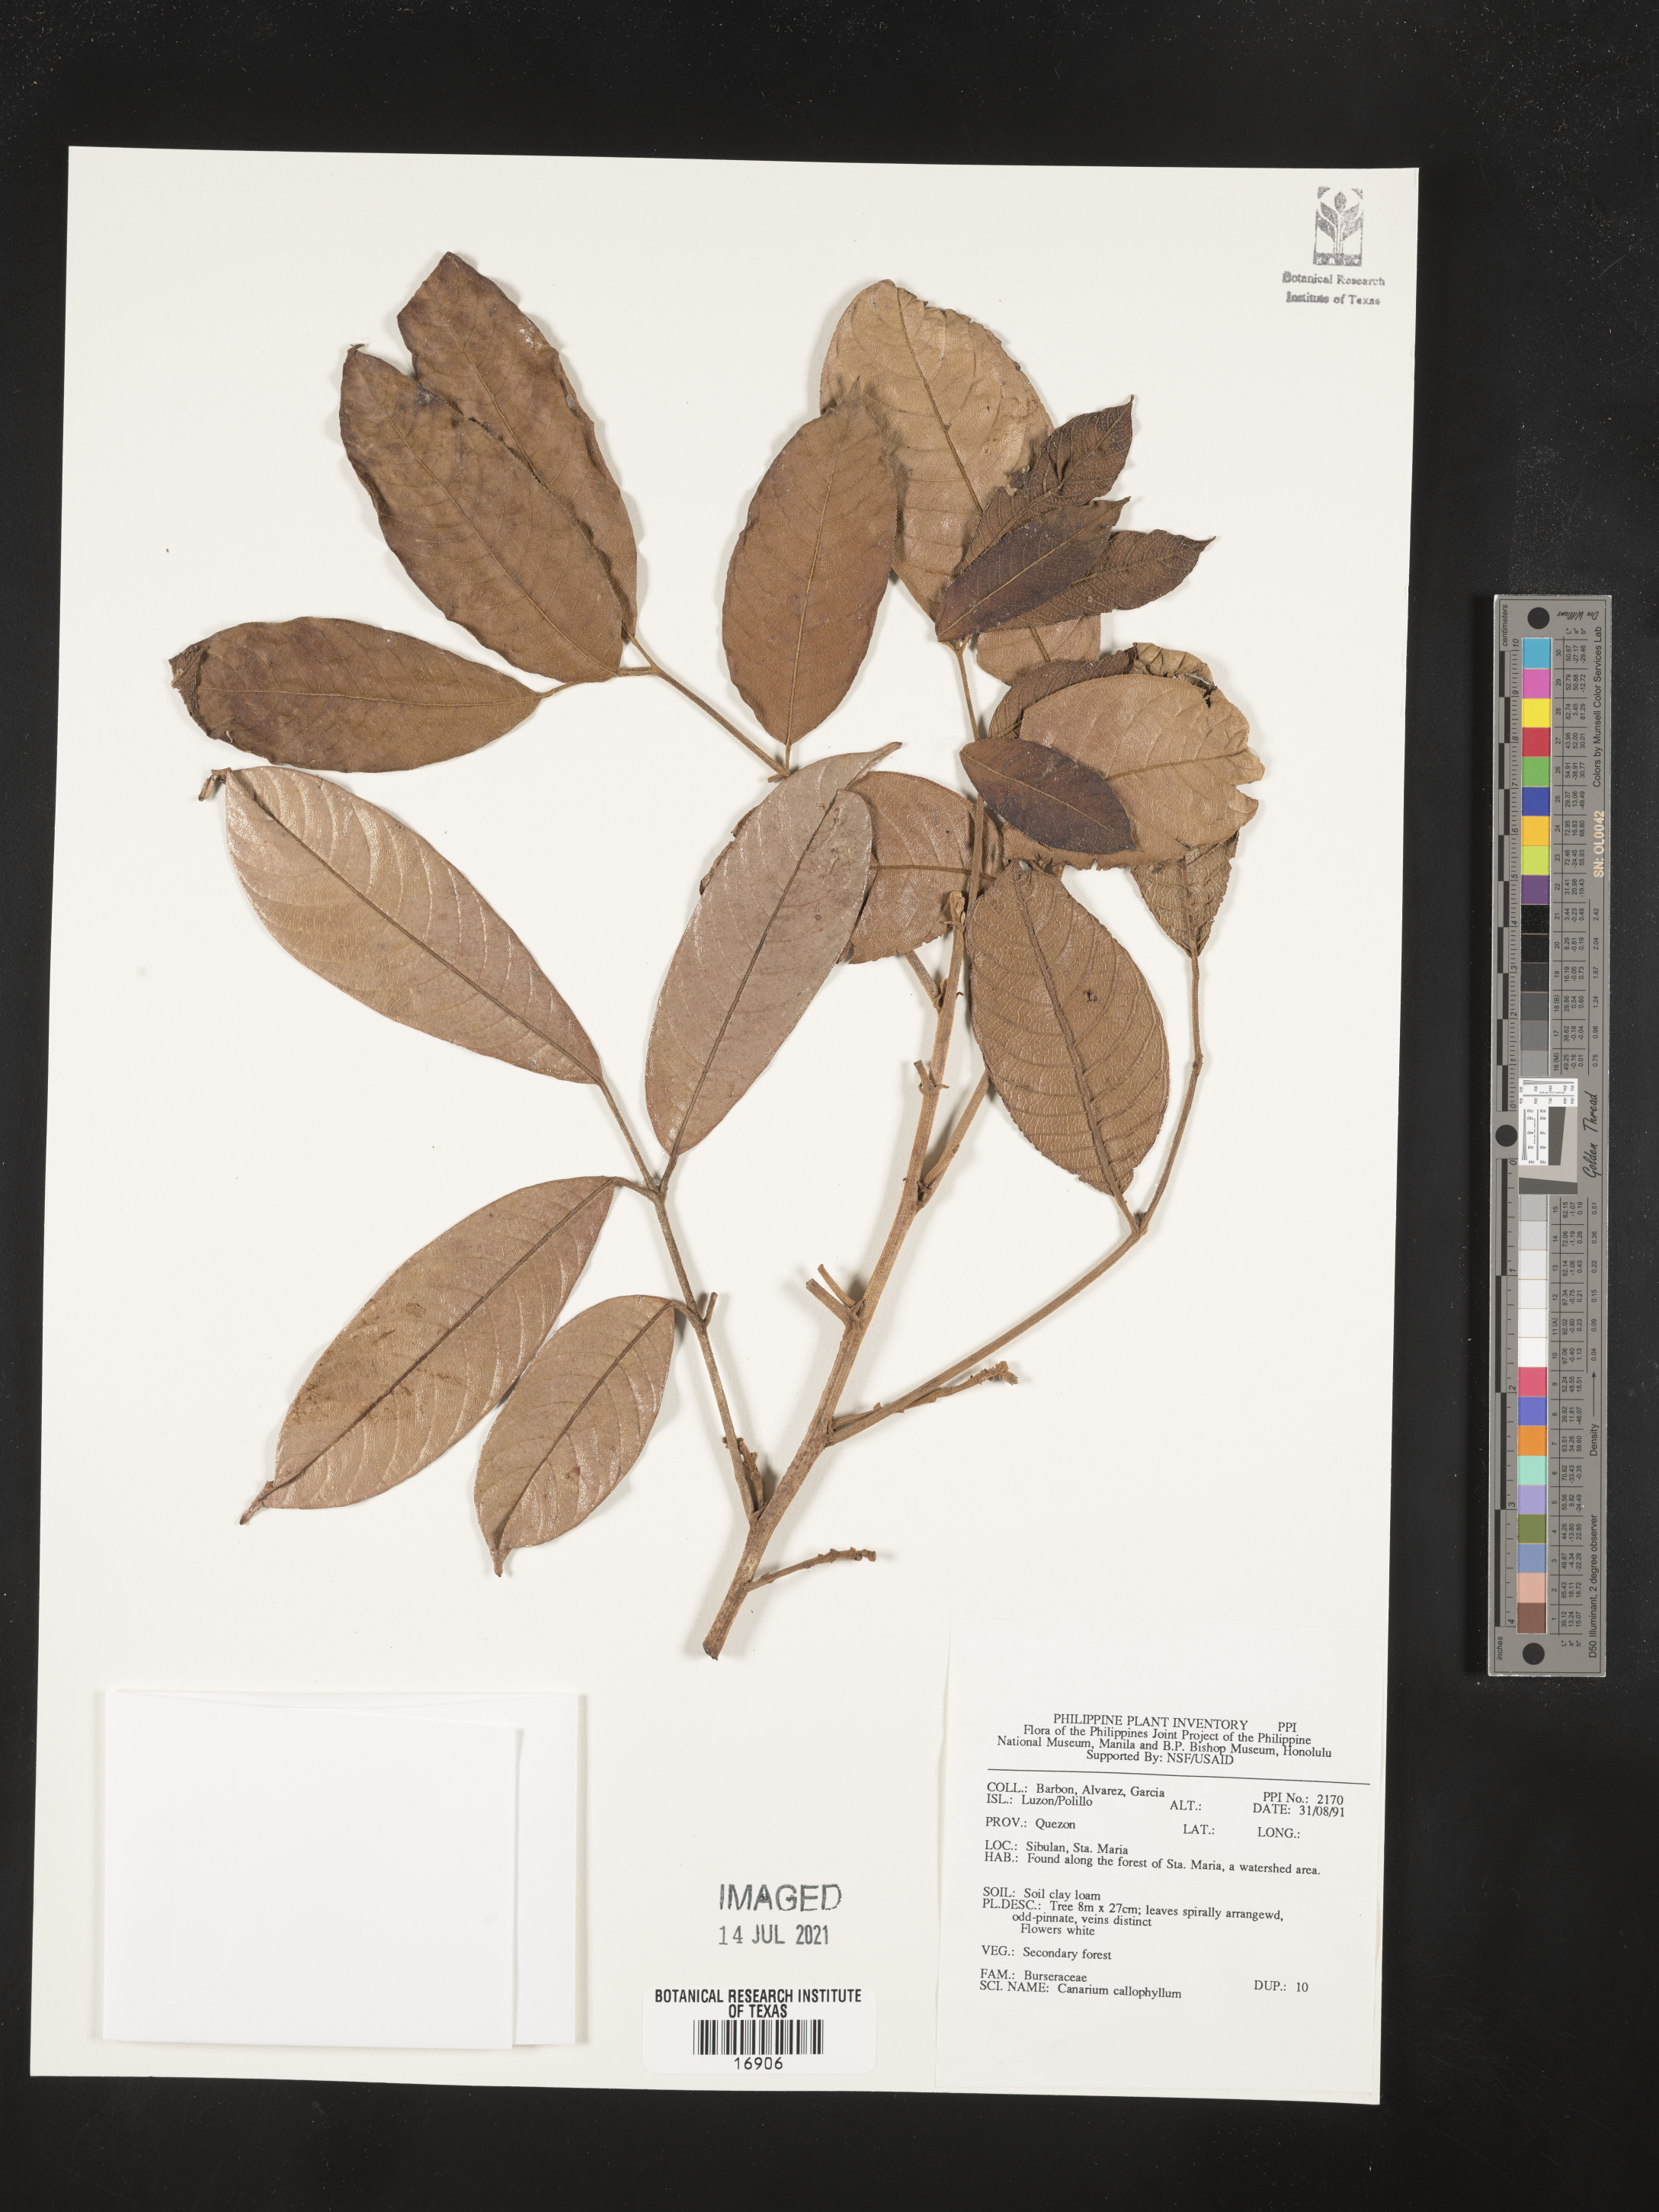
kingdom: Plantae
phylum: Tracheophyta
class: Magnoliopsida
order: Sapindales
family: Burseraceae
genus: Canarium
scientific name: Canarium asperum
